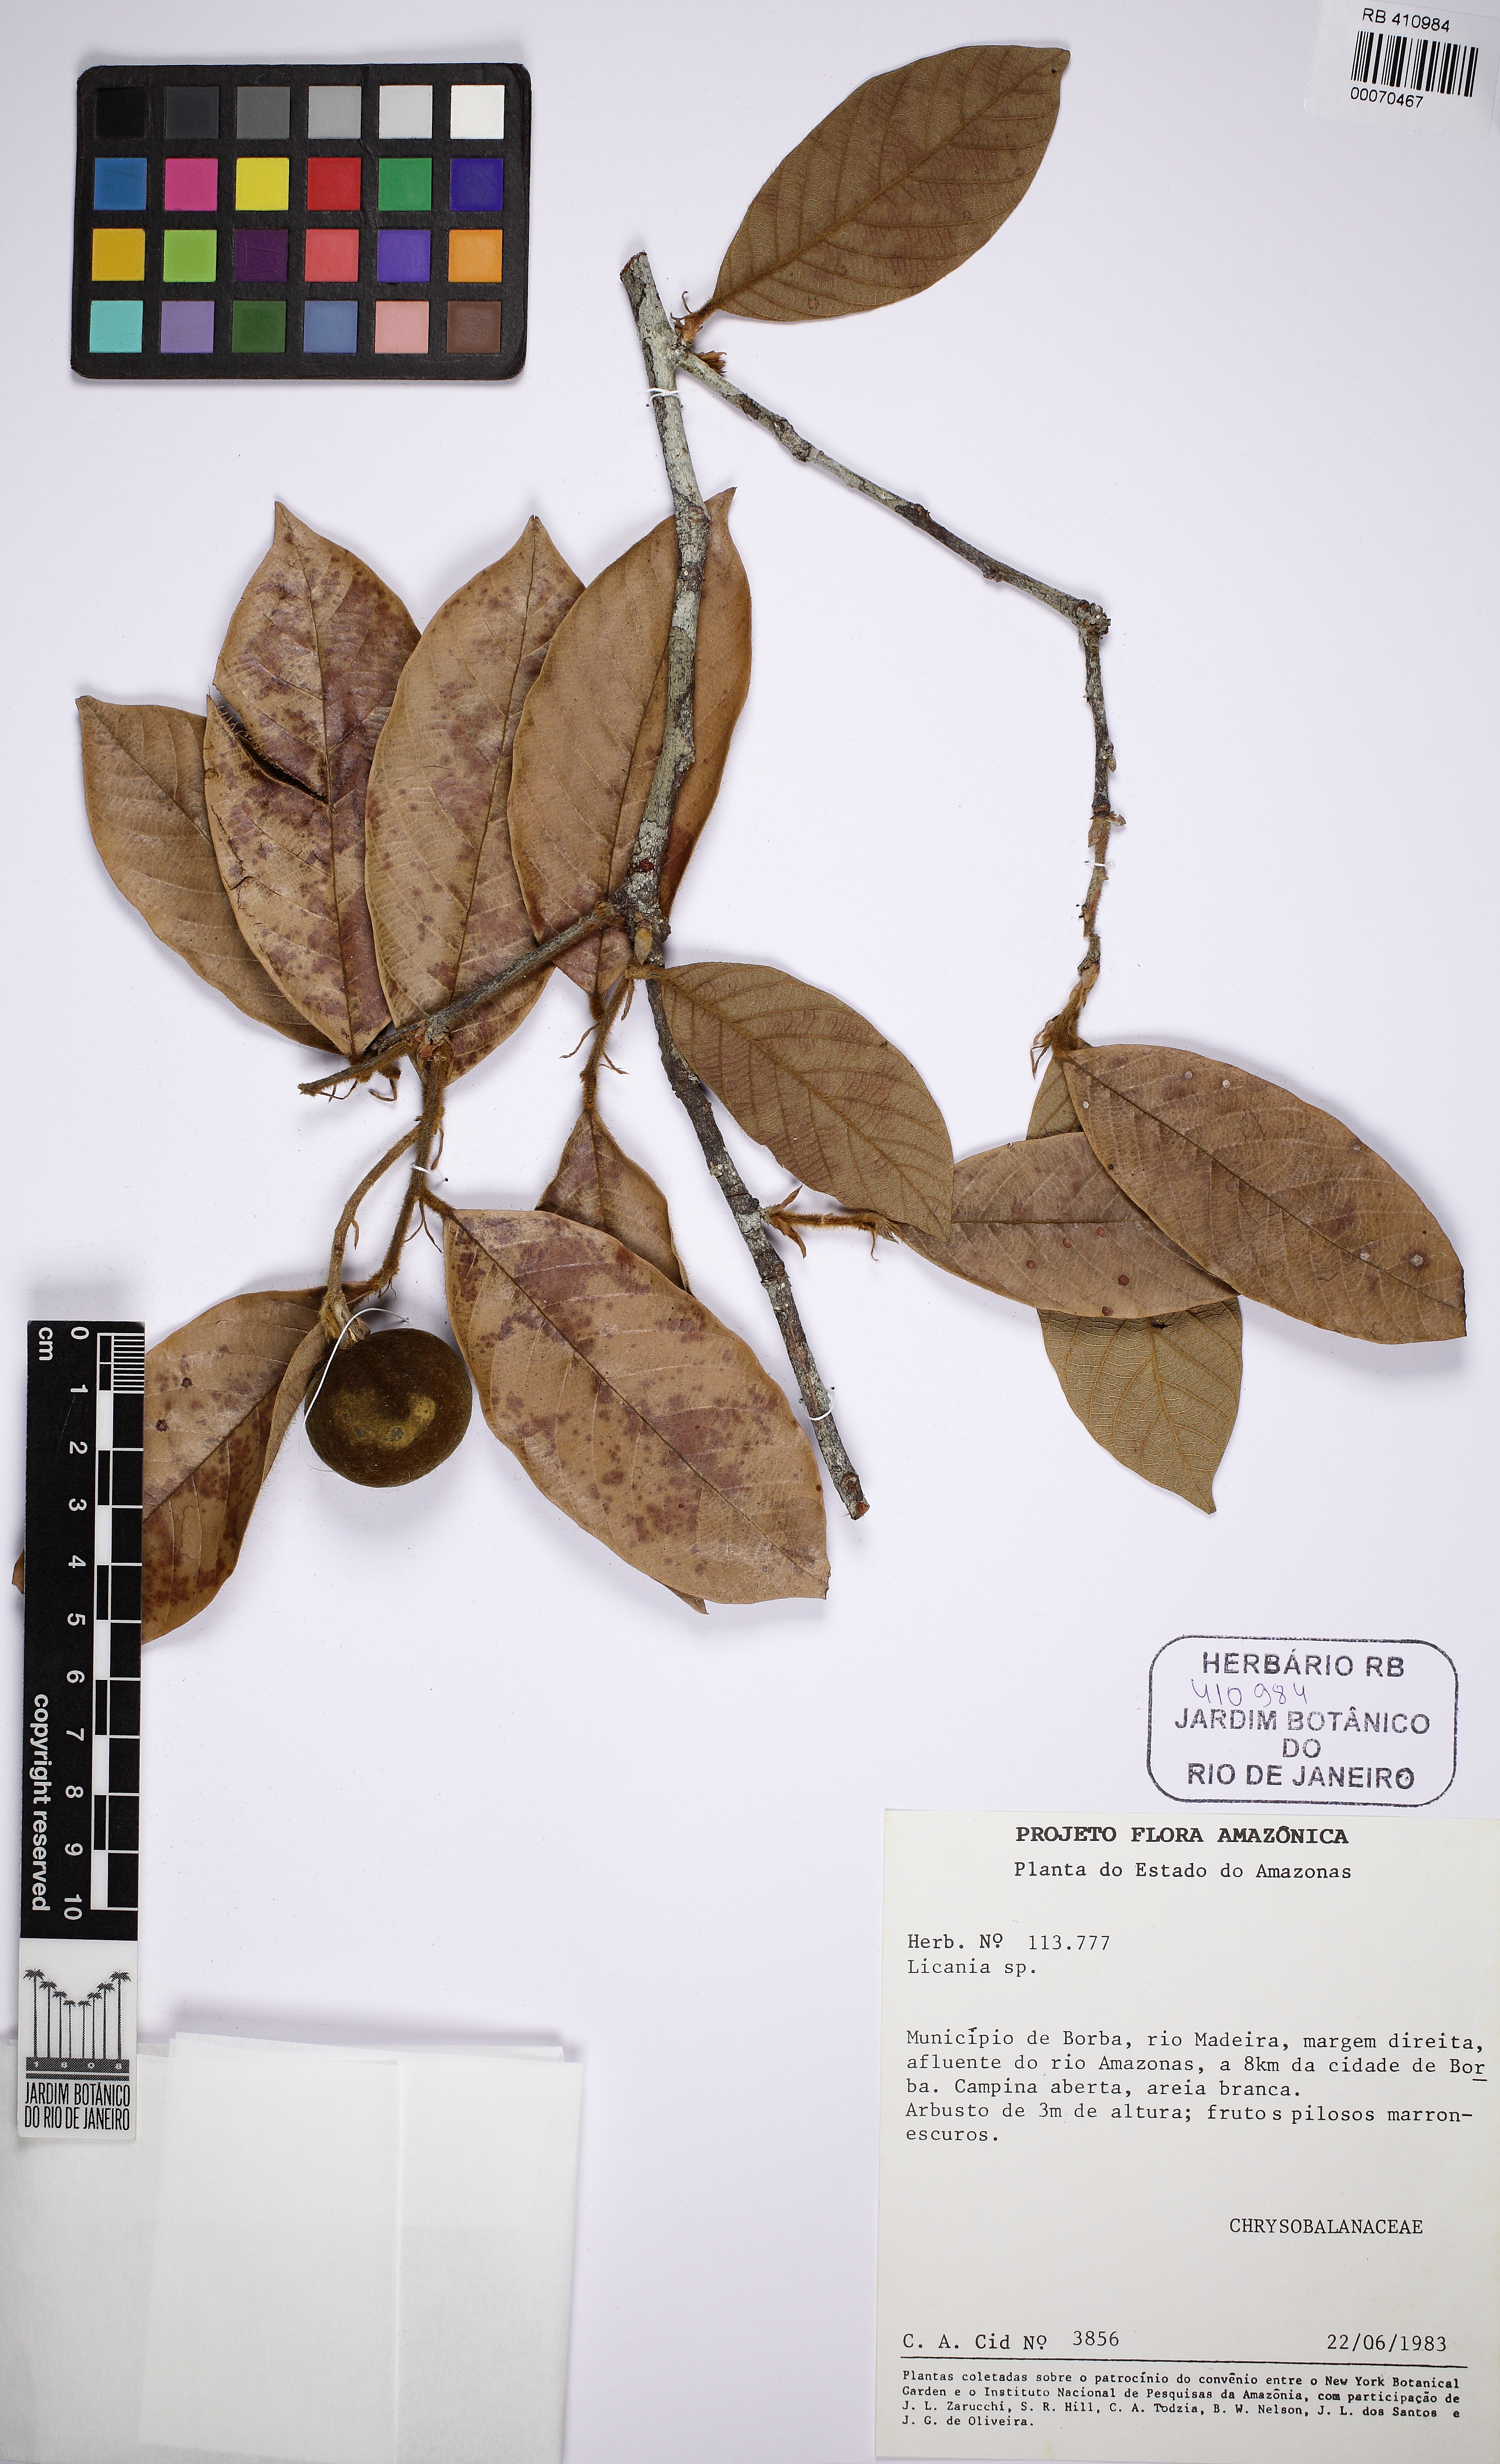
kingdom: Plantae
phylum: Tracheophyta
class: Magnoliopsida
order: Malpighiales
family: Chrysobalanaceae
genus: Gaulettia
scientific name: Gaulettia canomensis
